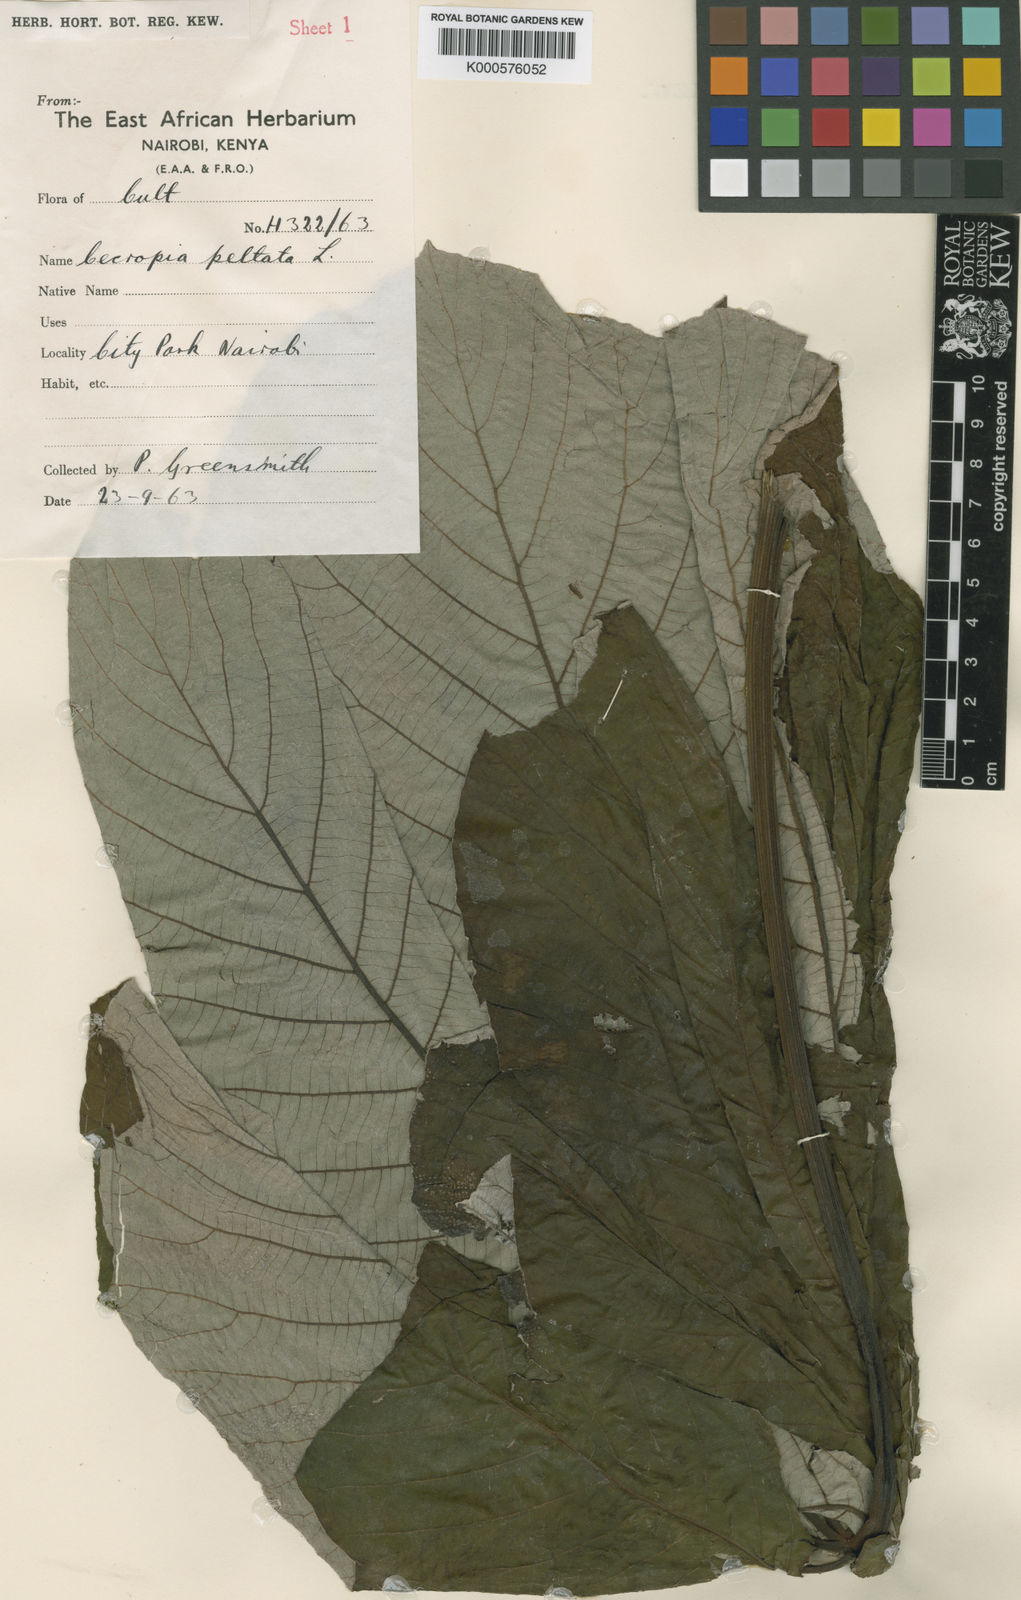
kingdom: Plantae
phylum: Tracheophyta
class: Magnoliopsida
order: Rosales
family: Urticaceae
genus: Cecropia
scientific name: Cecropia peltata
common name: Trumpet-tree
